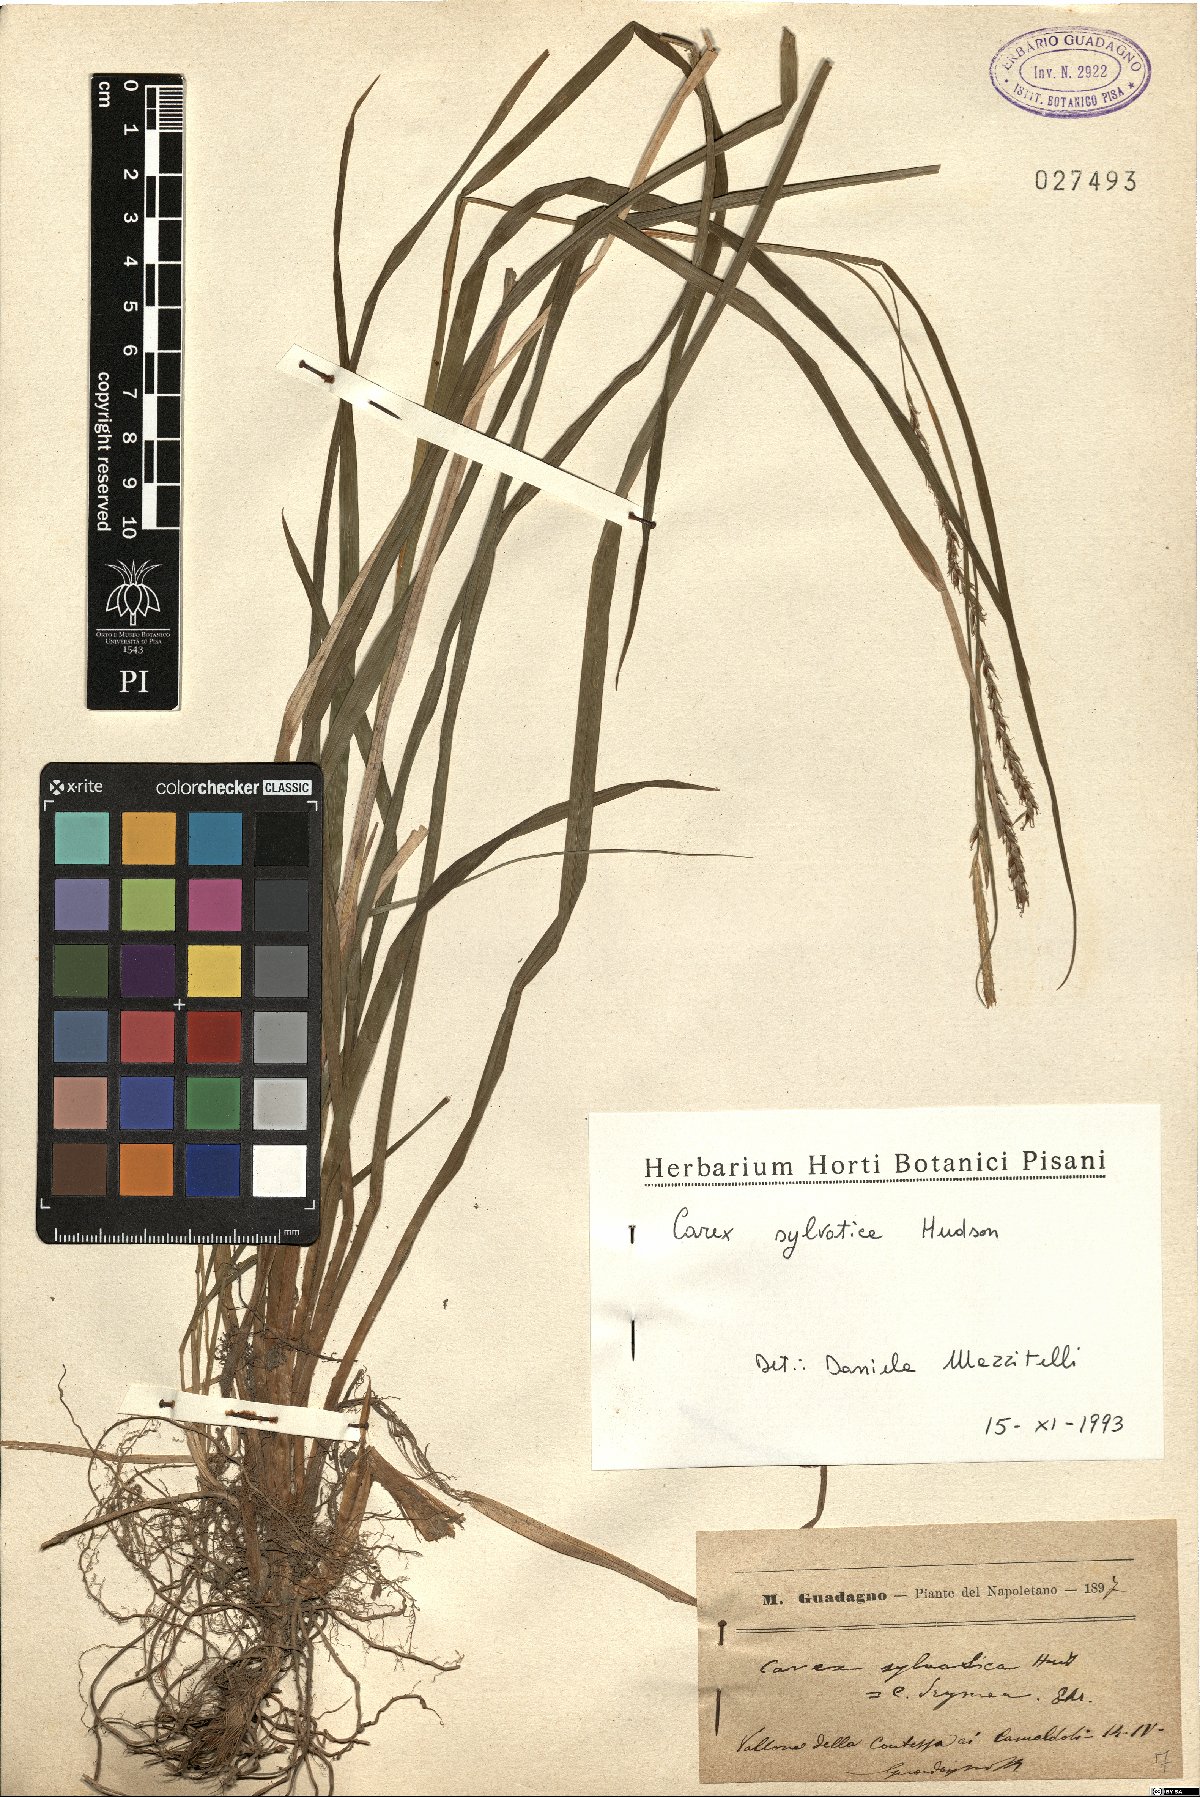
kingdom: Plantae
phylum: Tracheophyta
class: Liliopsida
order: Poales
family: Cyperaceae
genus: Carex
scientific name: Carex sylvatica
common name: Wood-sedge
